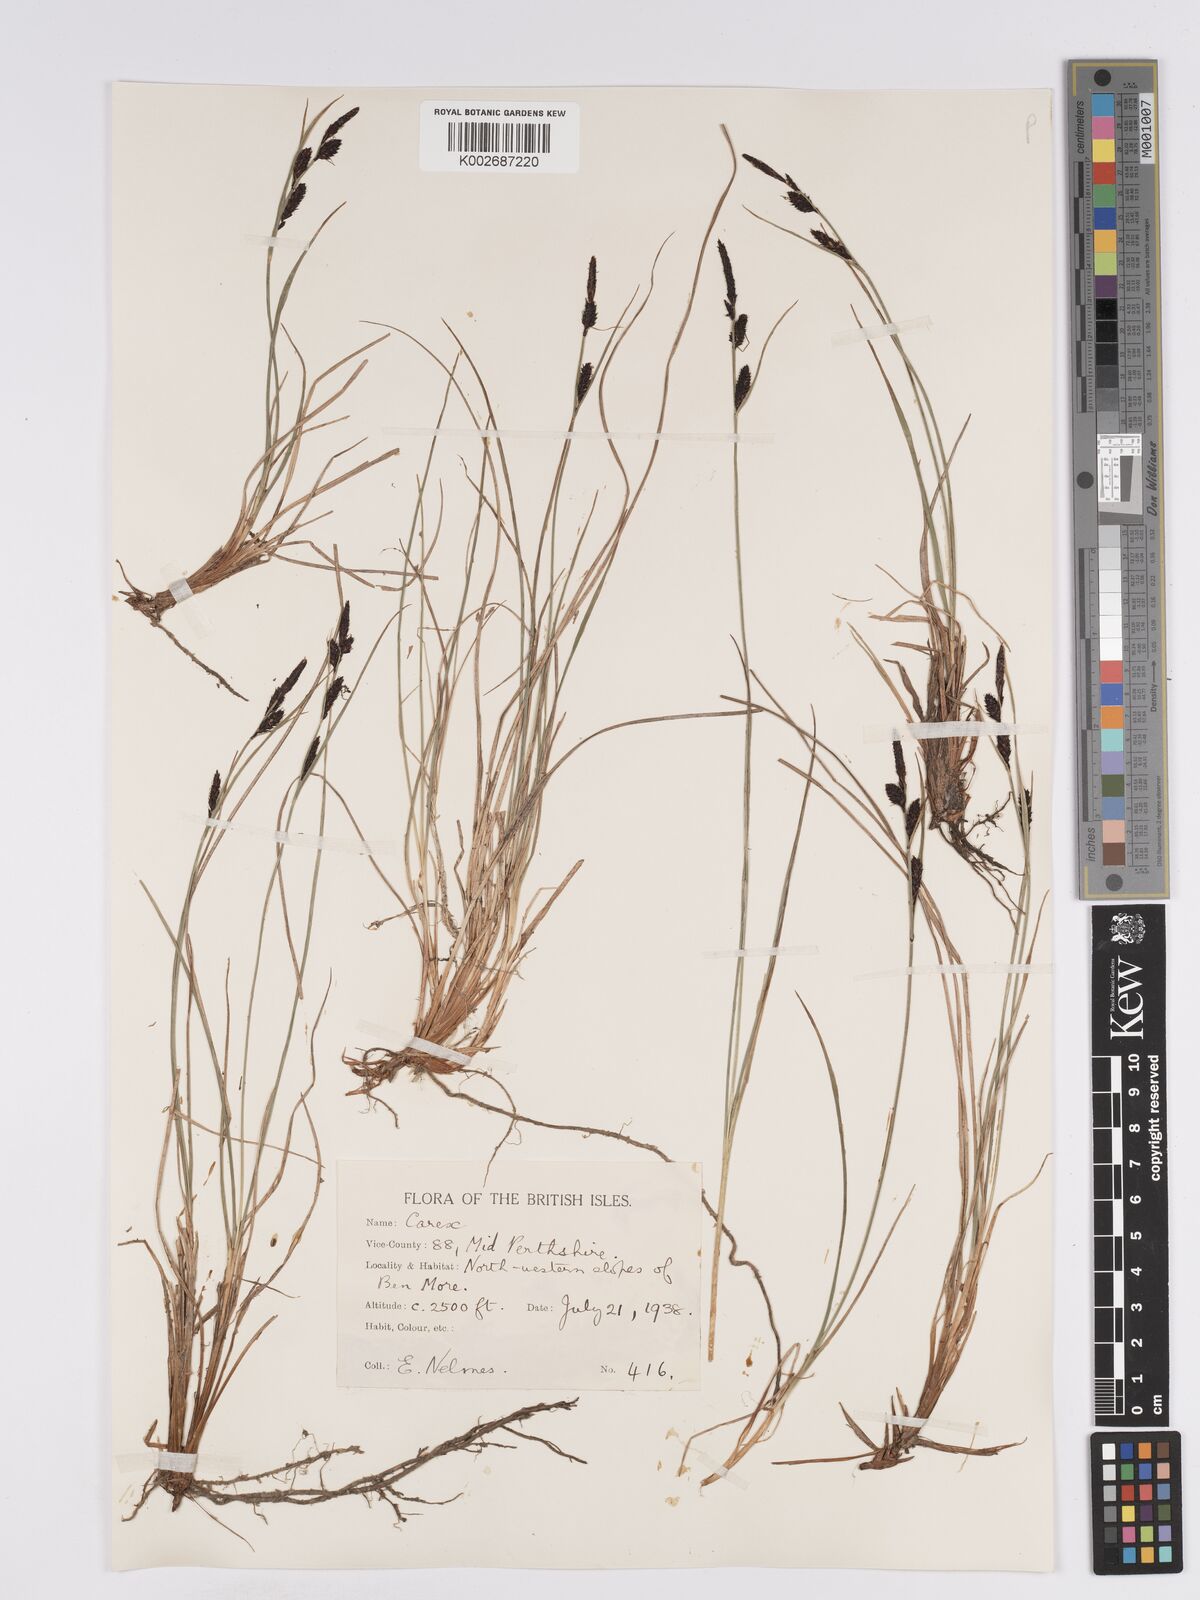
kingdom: Plantae
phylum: Tracheophyta
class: Liliopsida
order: Poales
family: Cyperaceae
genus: Carex
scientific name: Carex nigra
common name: Common sedge
